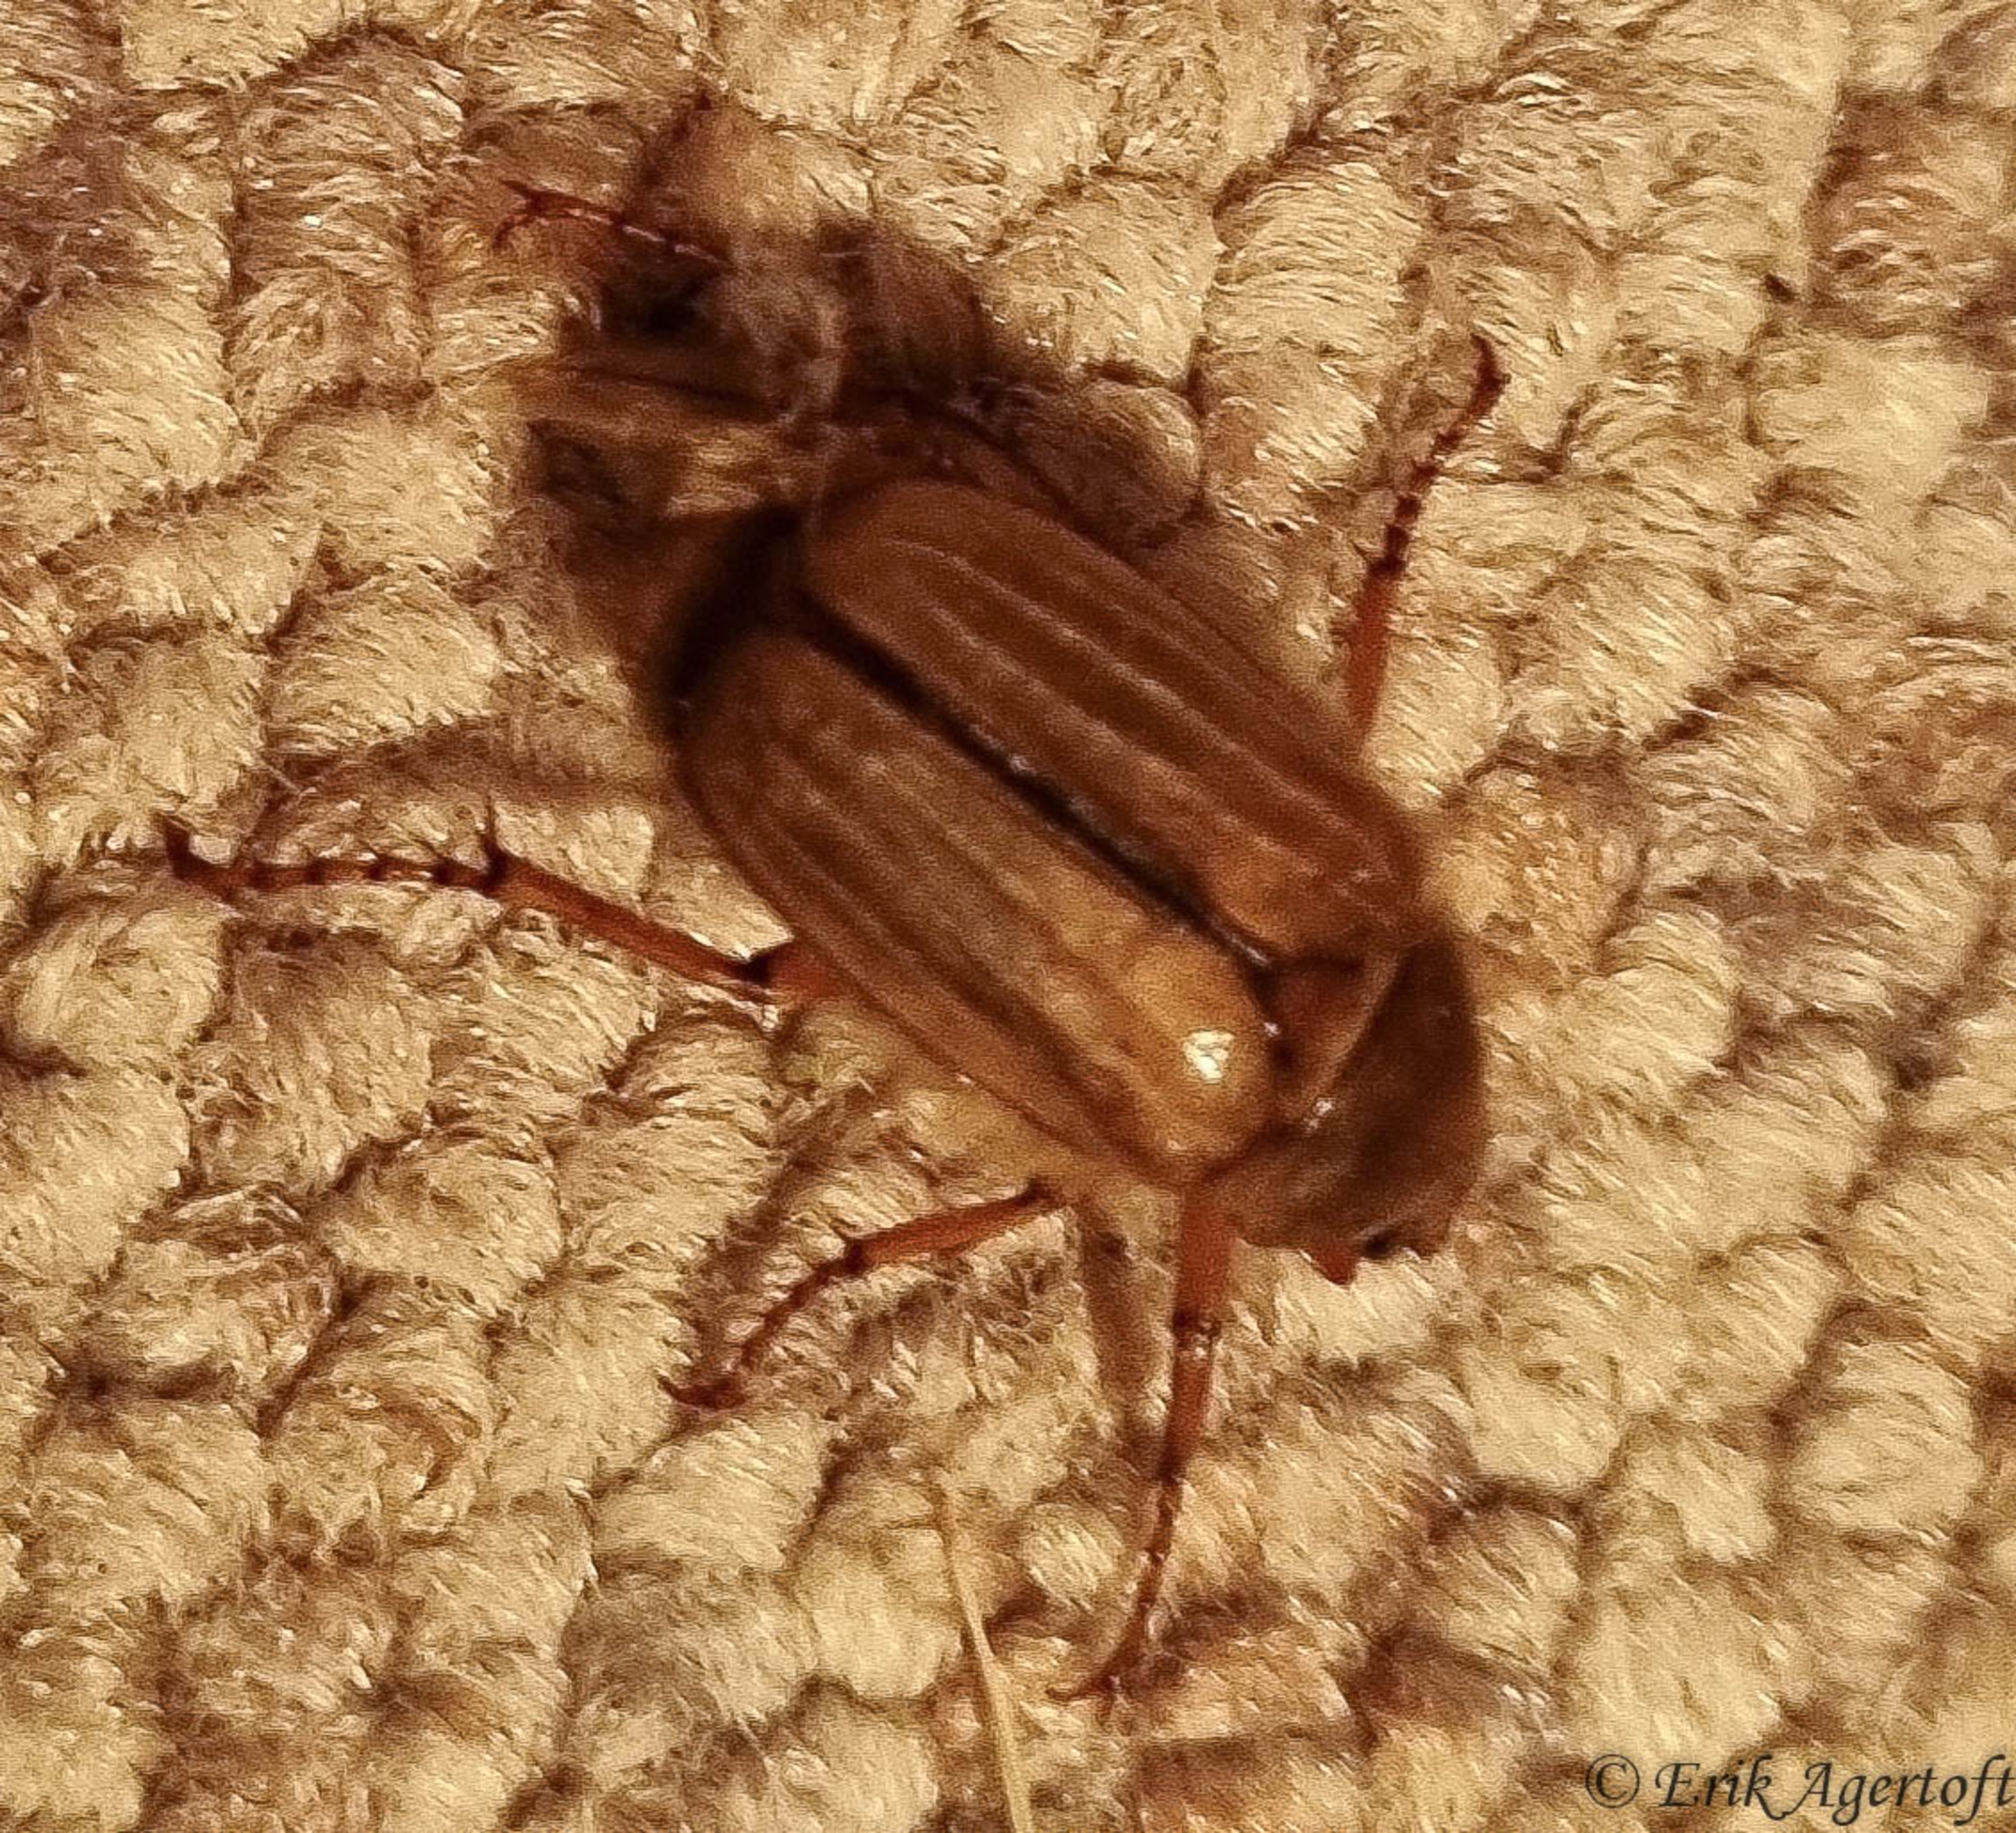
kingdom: Animalia
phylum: Arthropoda
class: Insecta
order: Coleoptera
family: Scarabaeidae
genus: Amphimallon
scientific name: Amphimallon solstitiale
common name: Sankthansoldenborre
